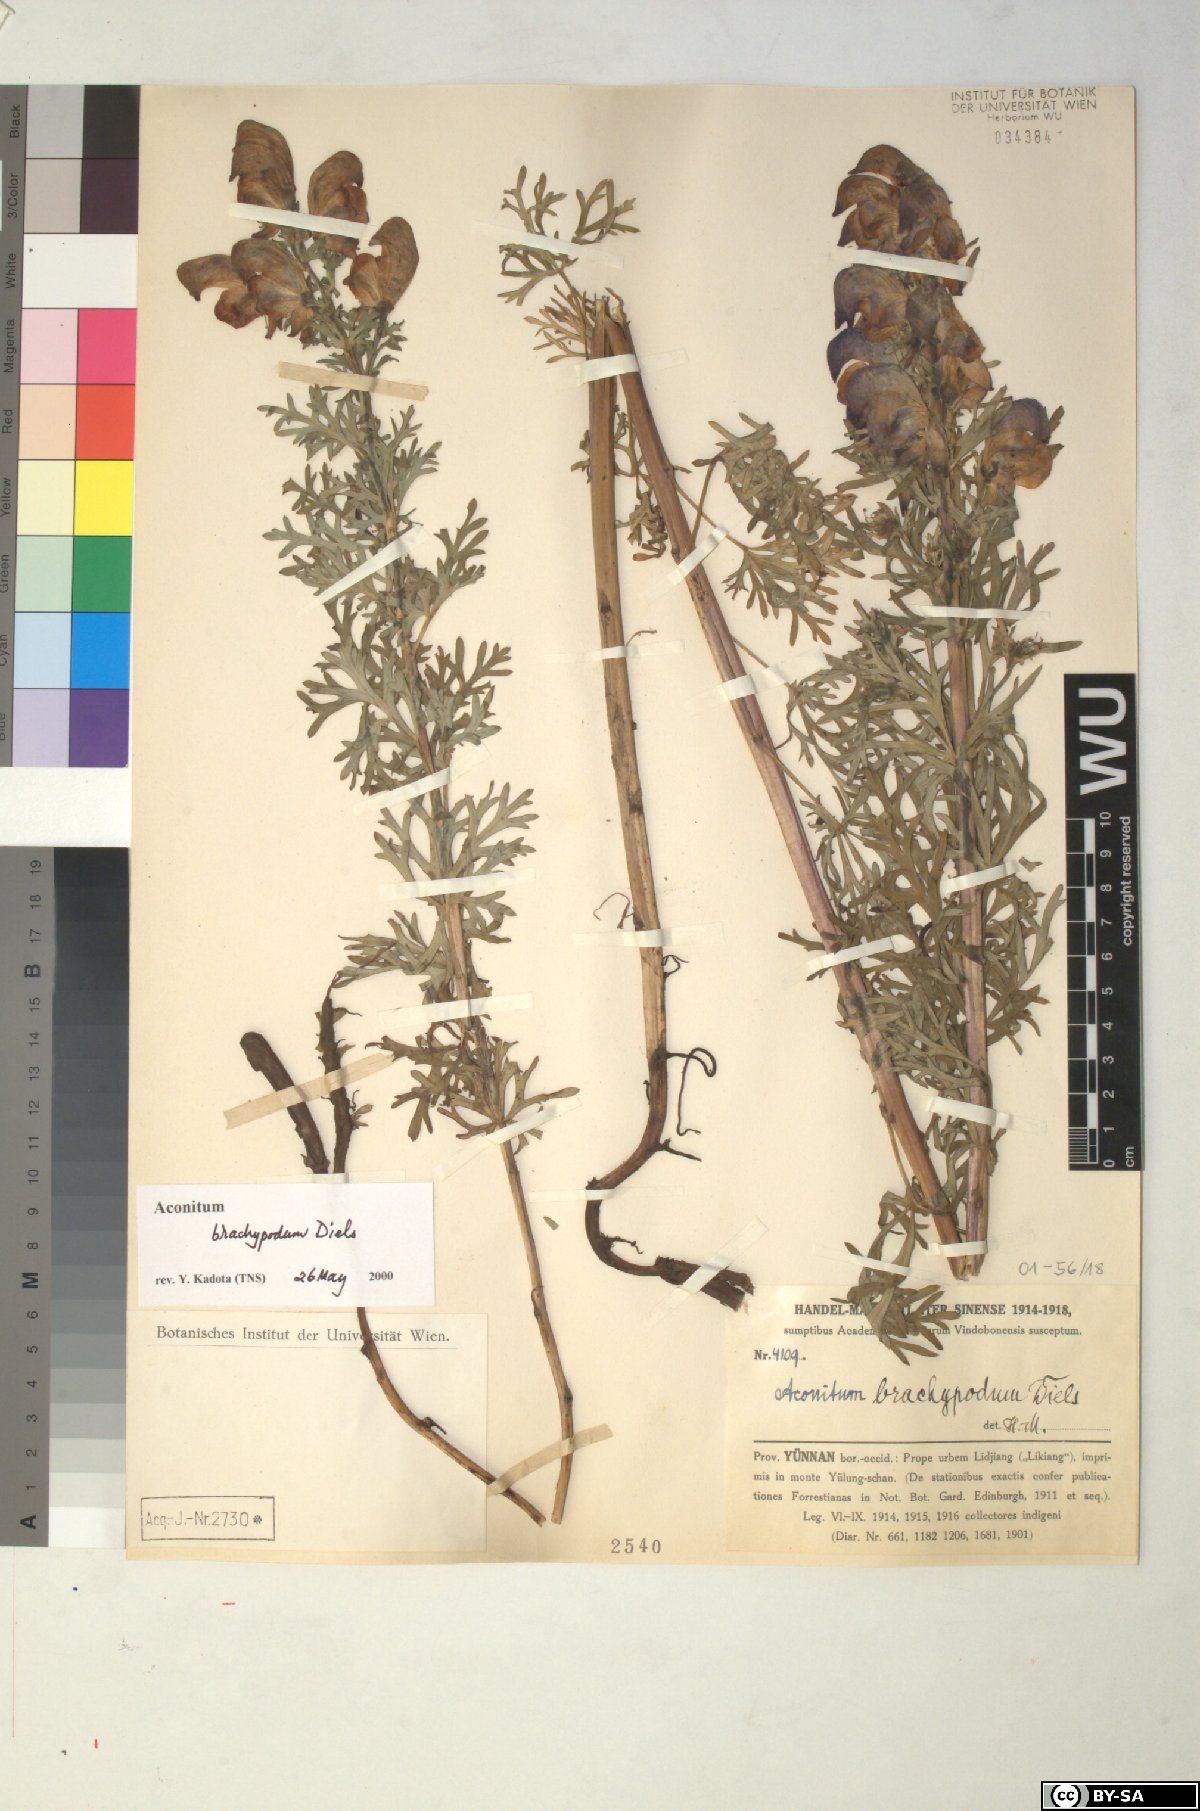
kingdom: Plantae
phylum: Tracheophyta
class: Magnoliopsida
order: Ranunculales
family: Ranunculaceae
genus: Aconitum
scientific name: Aconitum brachypodum
